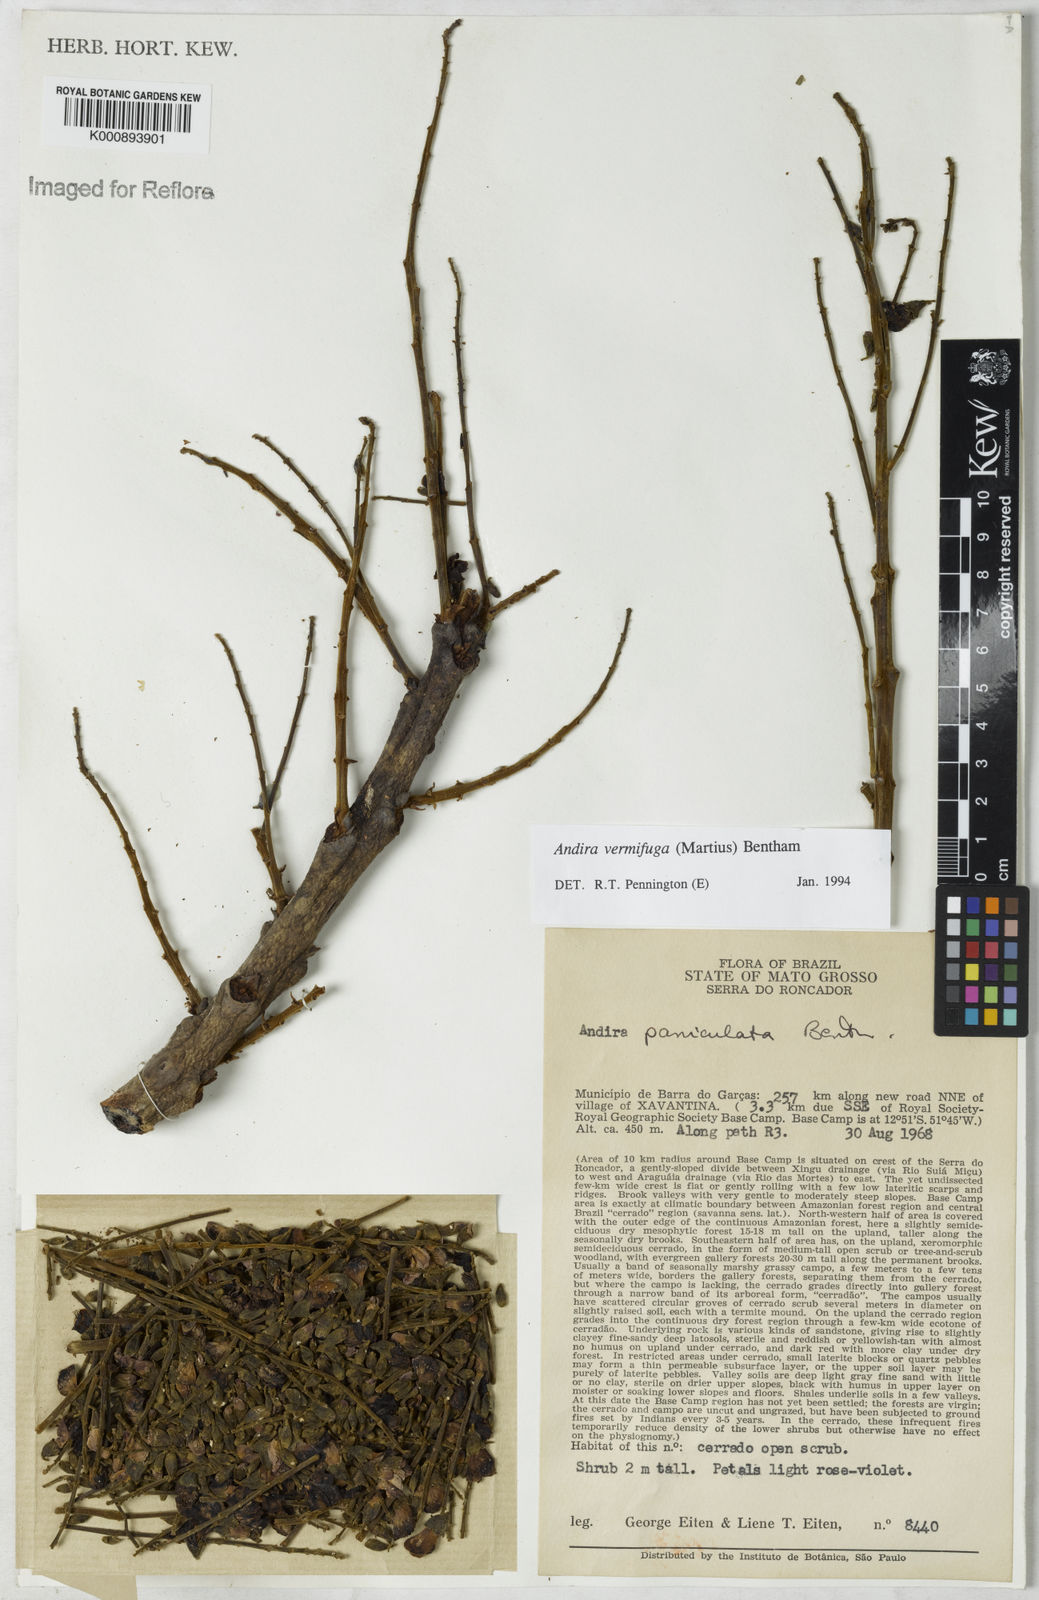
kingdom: Plantae
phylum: Tracheophyta
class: Magnoliopsida
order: Fabales
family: Fabaceae
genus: Andira
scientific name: Andira vermifuga
